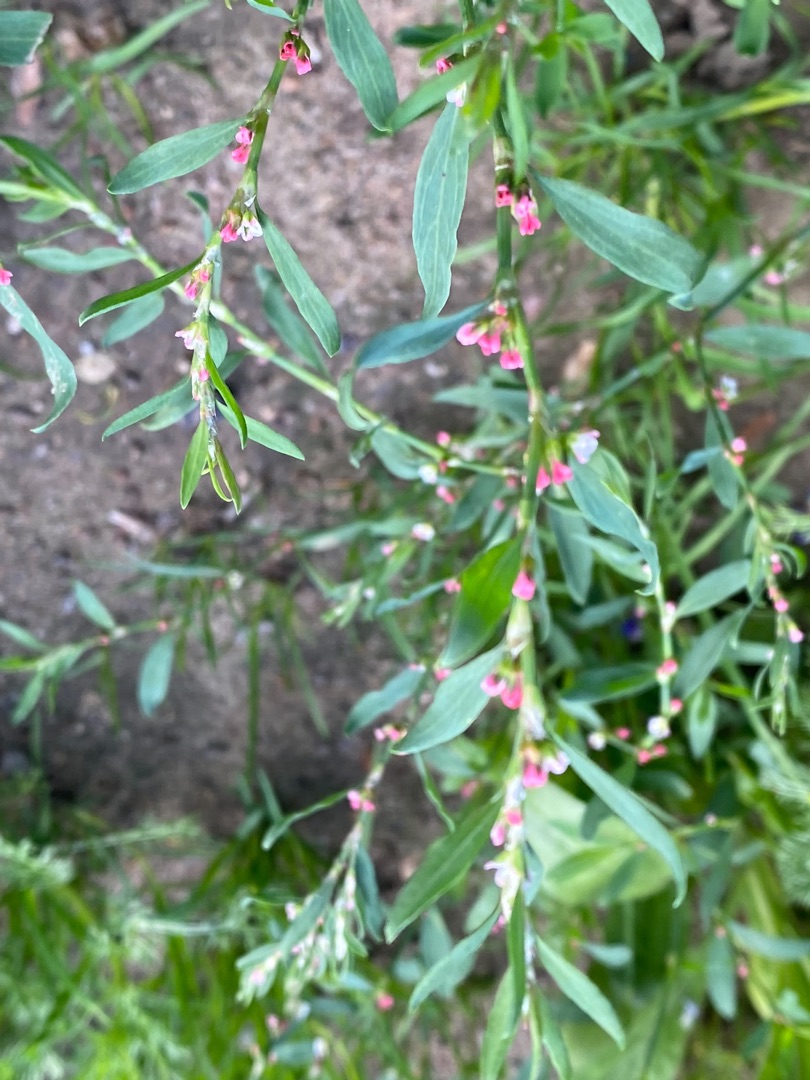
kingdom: Plantae
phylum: Tracheophyta
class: Magnoliopsida
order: Caryophyllales
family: Polygonaceae
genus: Polygonum
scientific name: Polygonum aviculare
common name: Vej-pileurt (underart)
